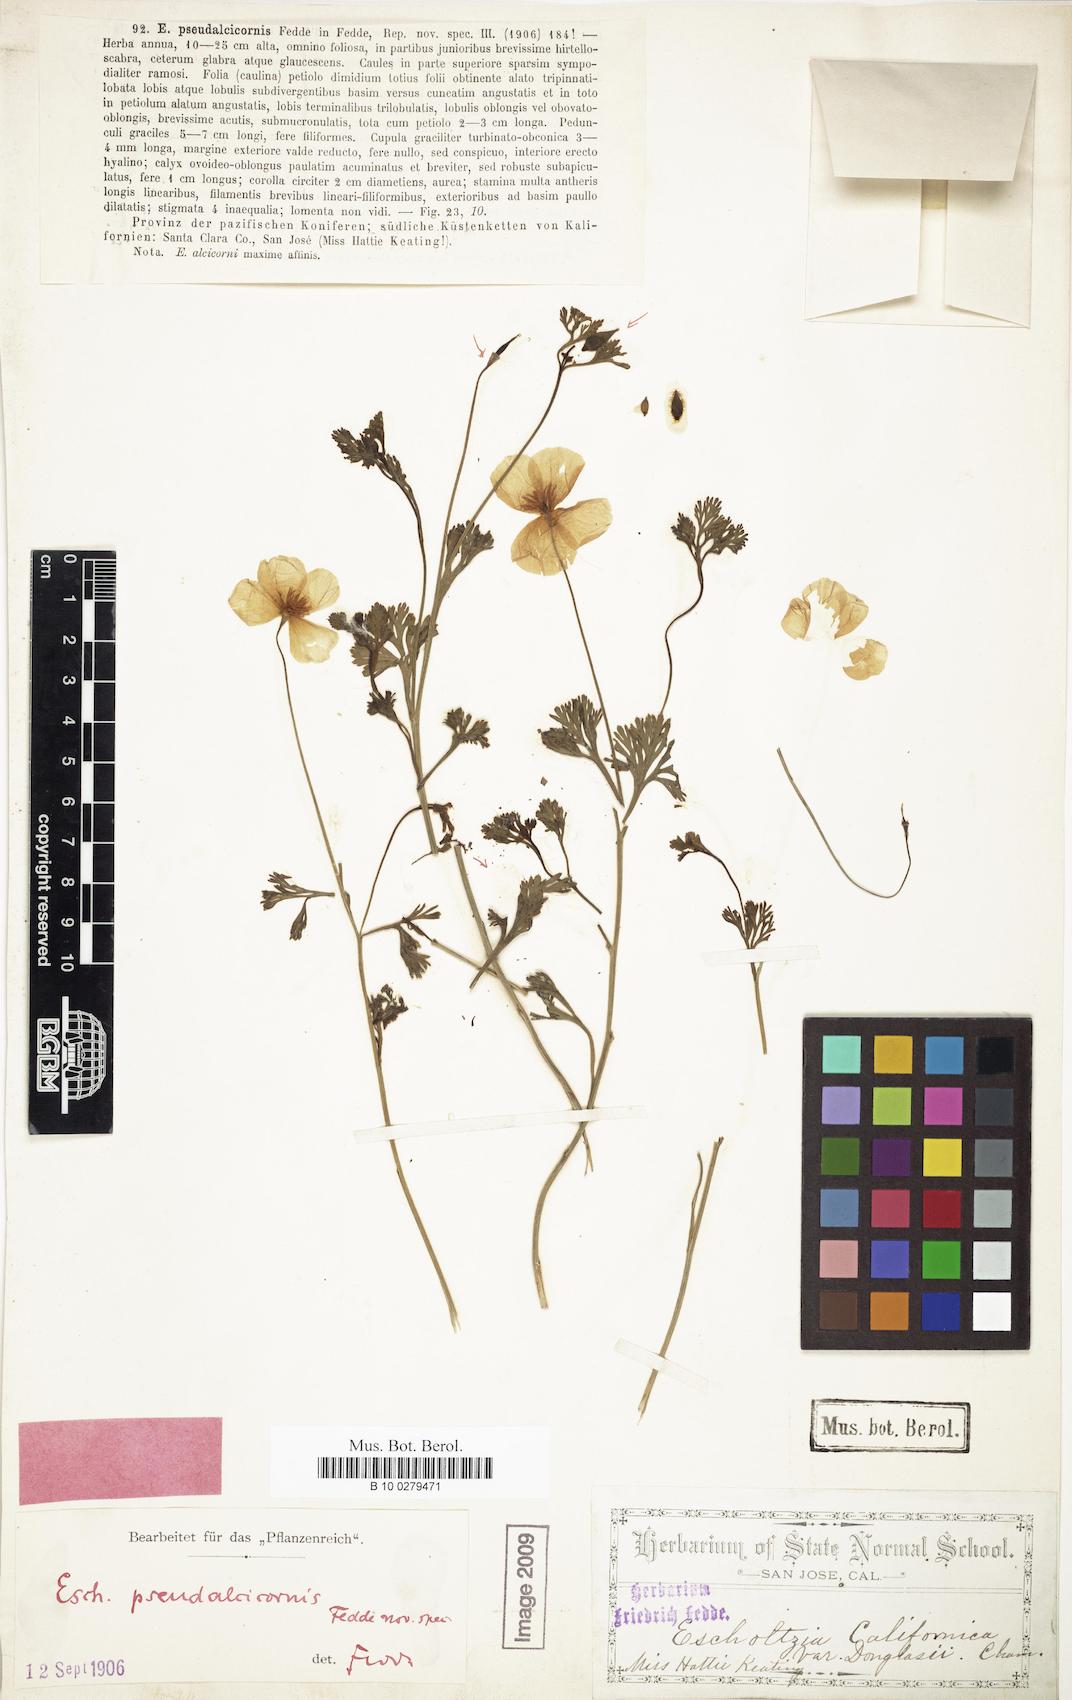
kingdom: Plantae
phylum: Tracheophyta
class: Magnoliopsida
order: Ranunculales
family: Papaveraceae
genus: Eschscholzia
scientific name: Eschscholzia caespitosa
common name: Tufted california-poppy
